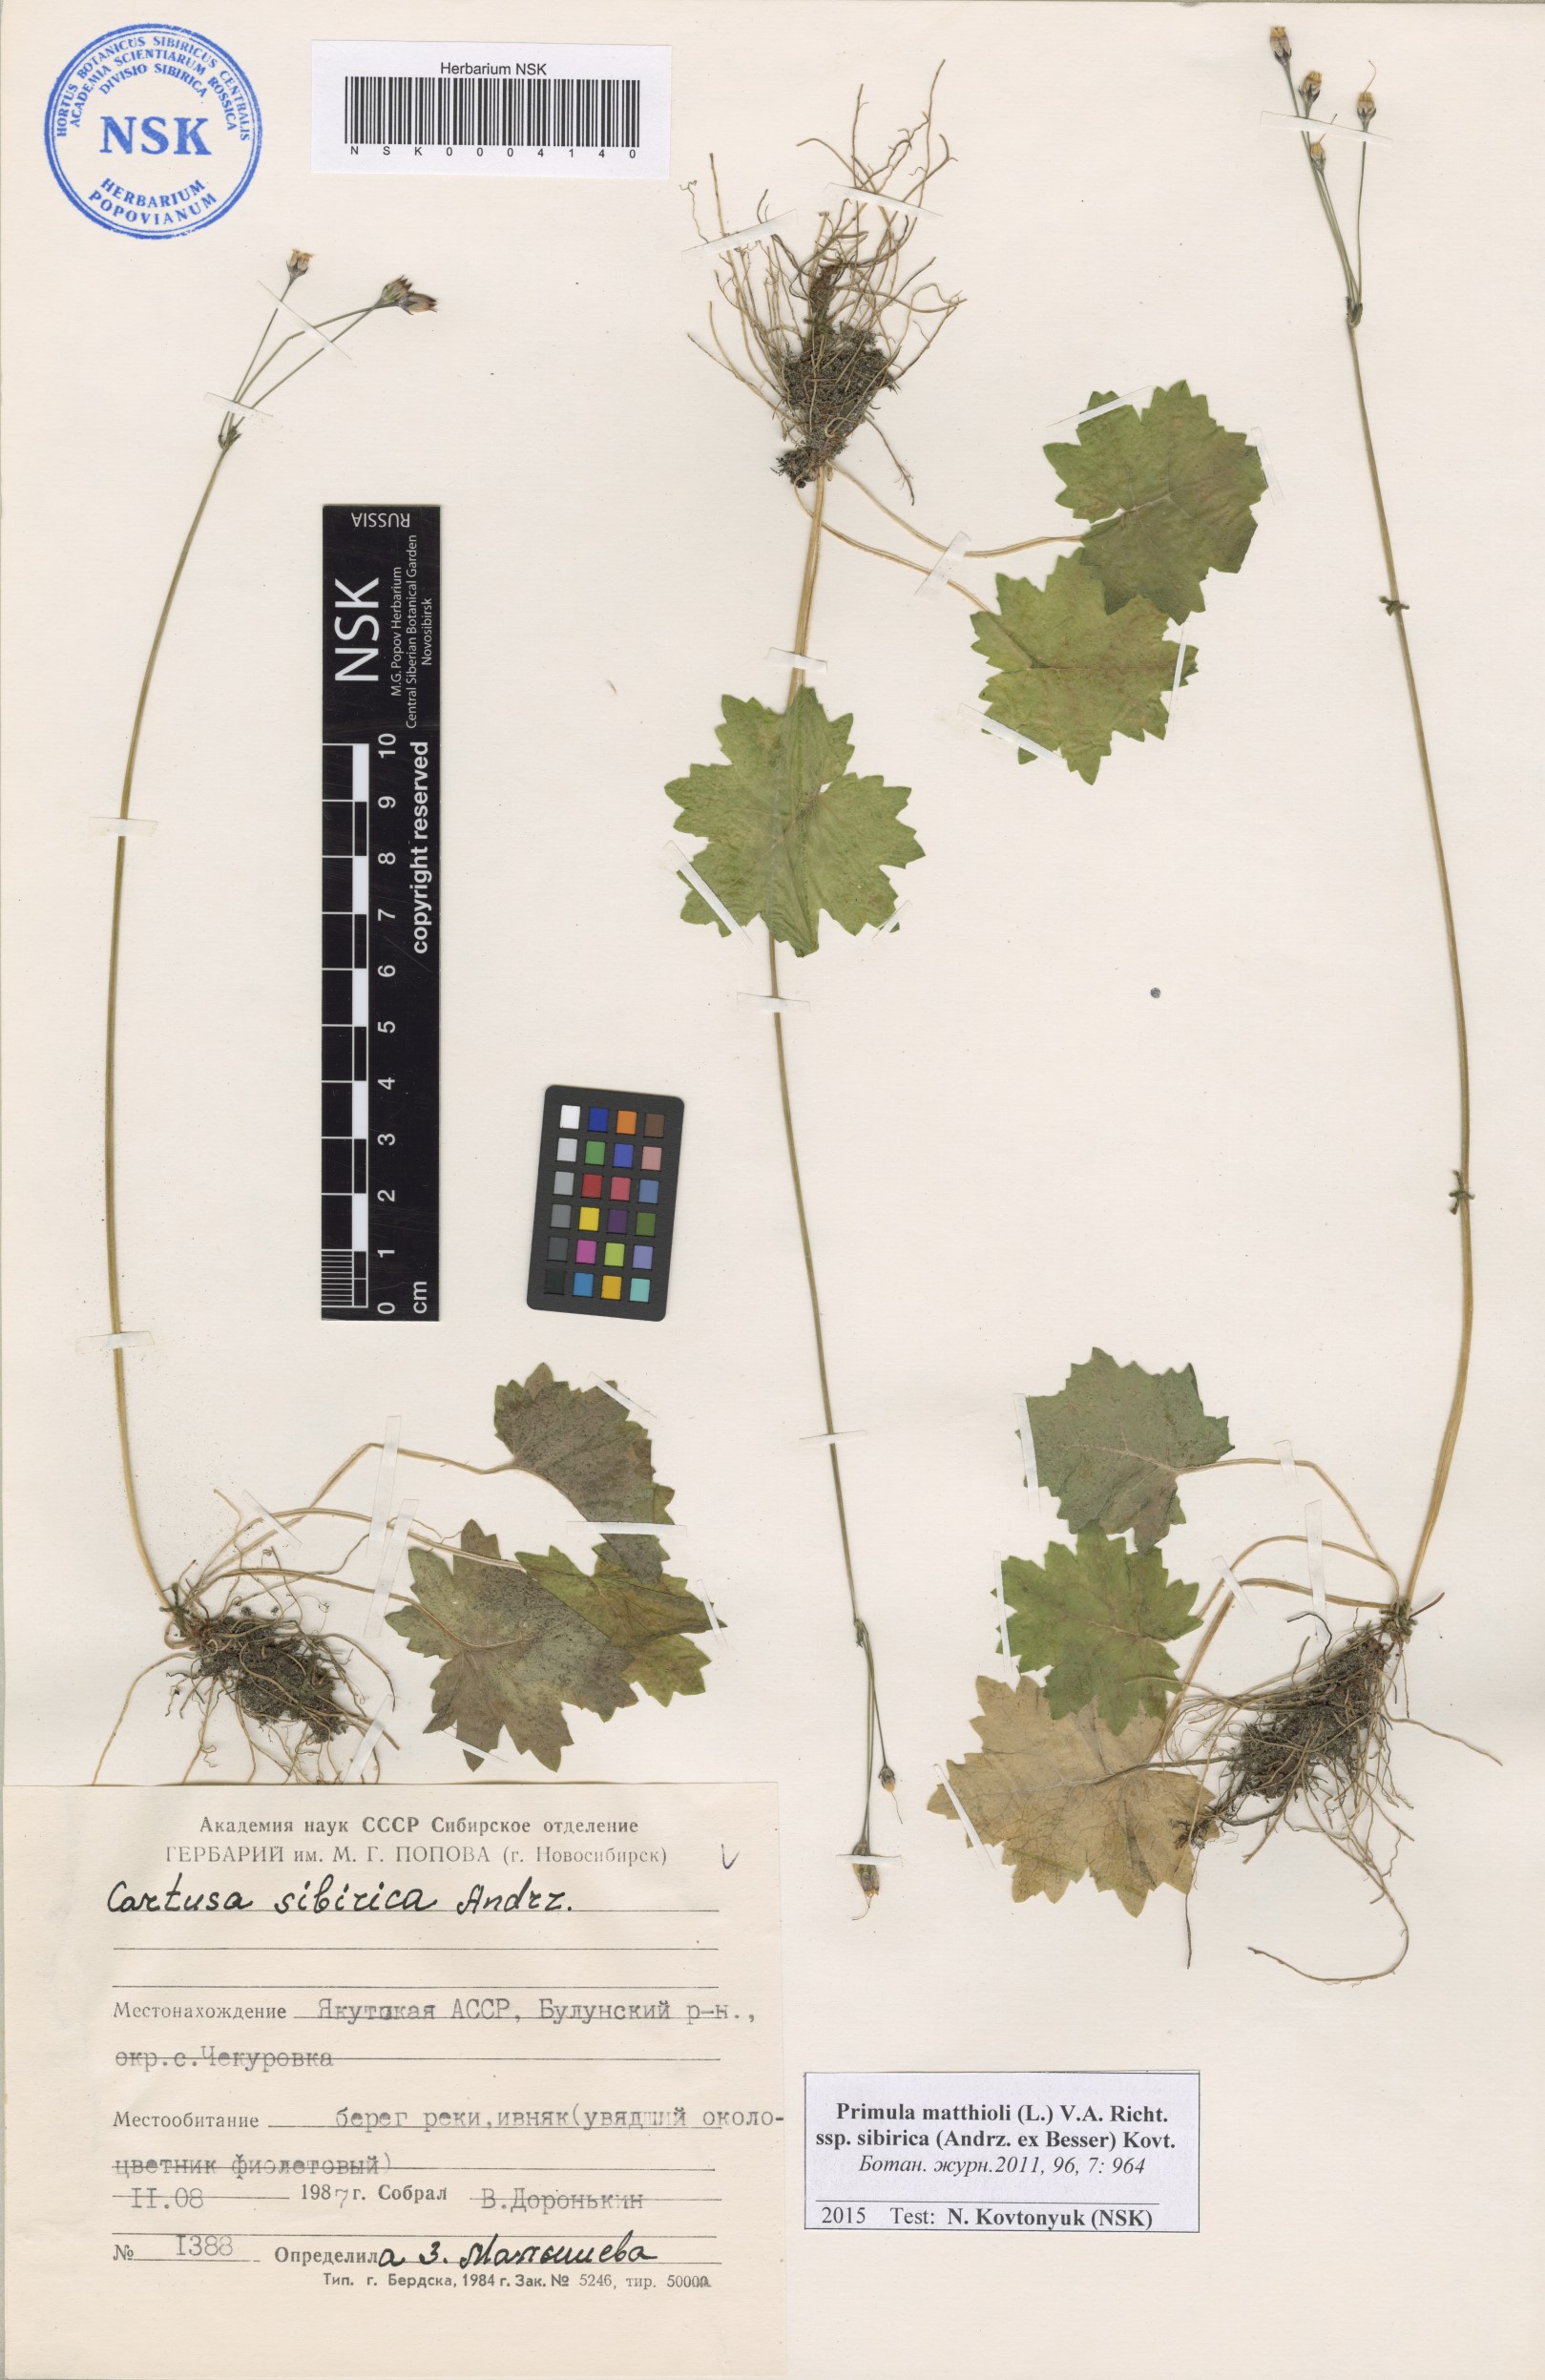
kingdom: Plantae
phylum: Tracheophyta
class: Magnoliopsida
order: Ericales
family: Primulaceae
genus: Primula
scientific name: Primula matthioli
